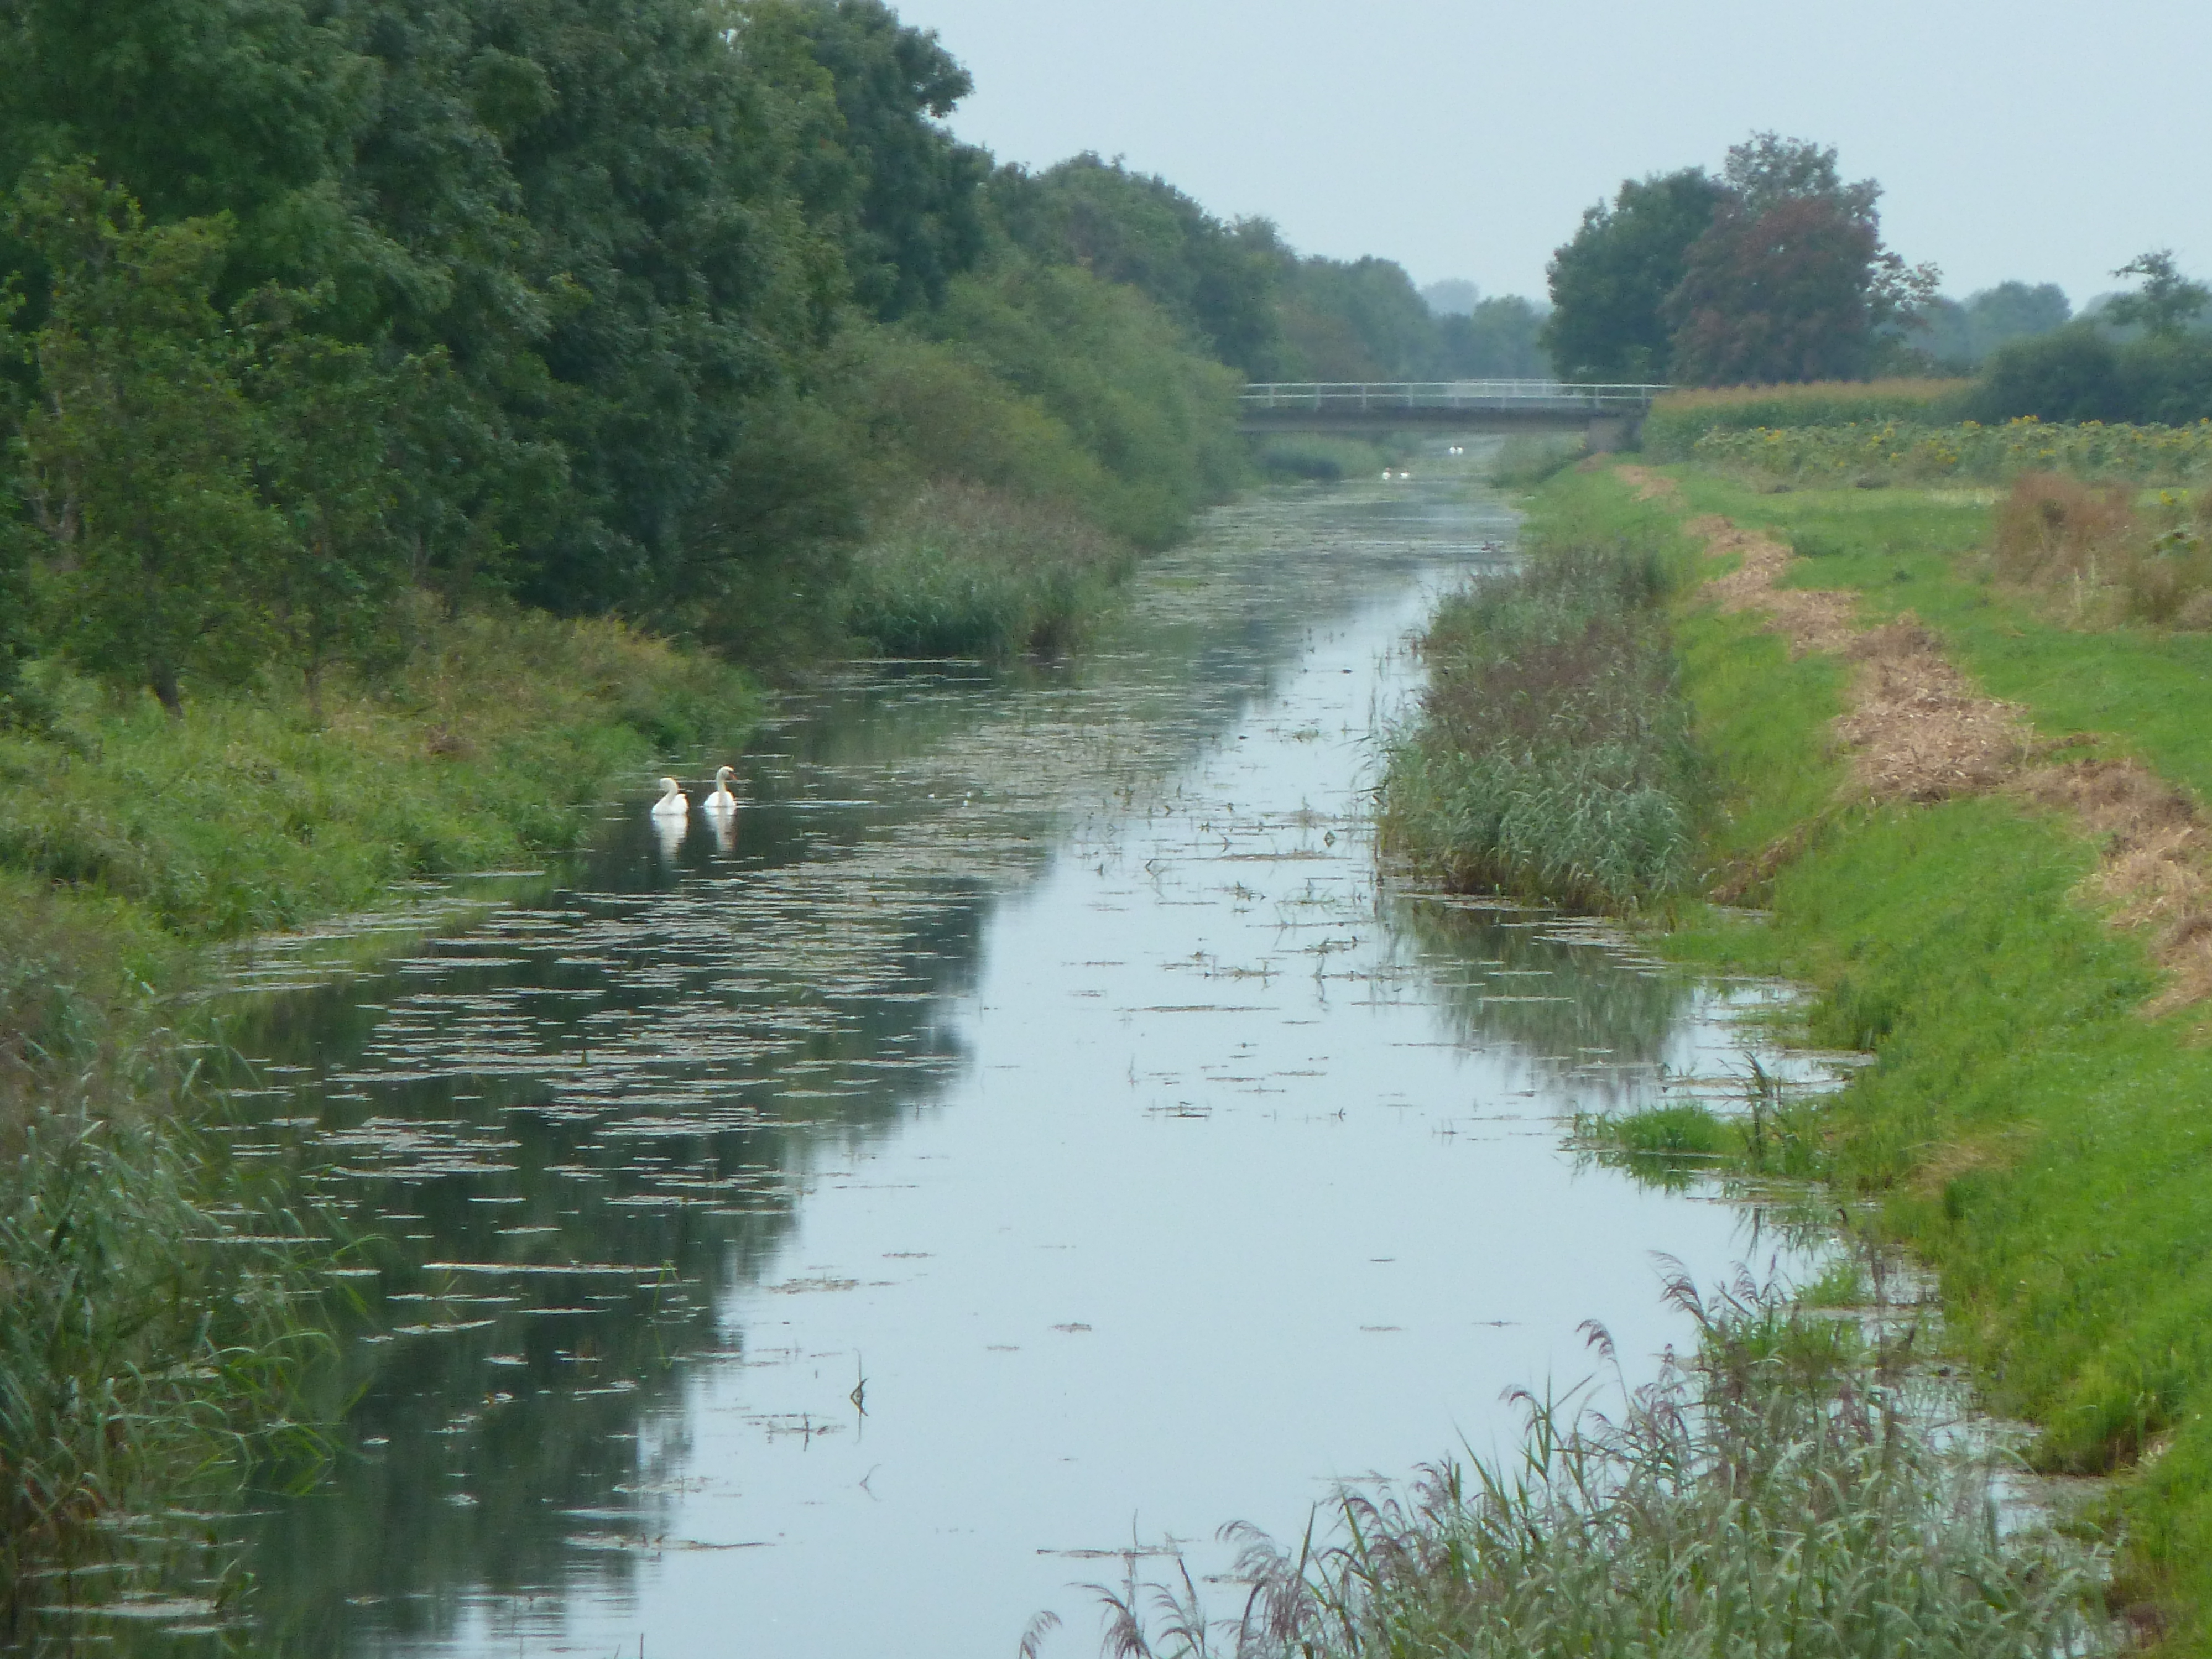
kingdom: Animalia
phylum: Chordata
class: Aves
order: Anseriformes
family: Anatidae
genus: Cygnus
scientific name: Cygnus olor
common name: Mute swan
